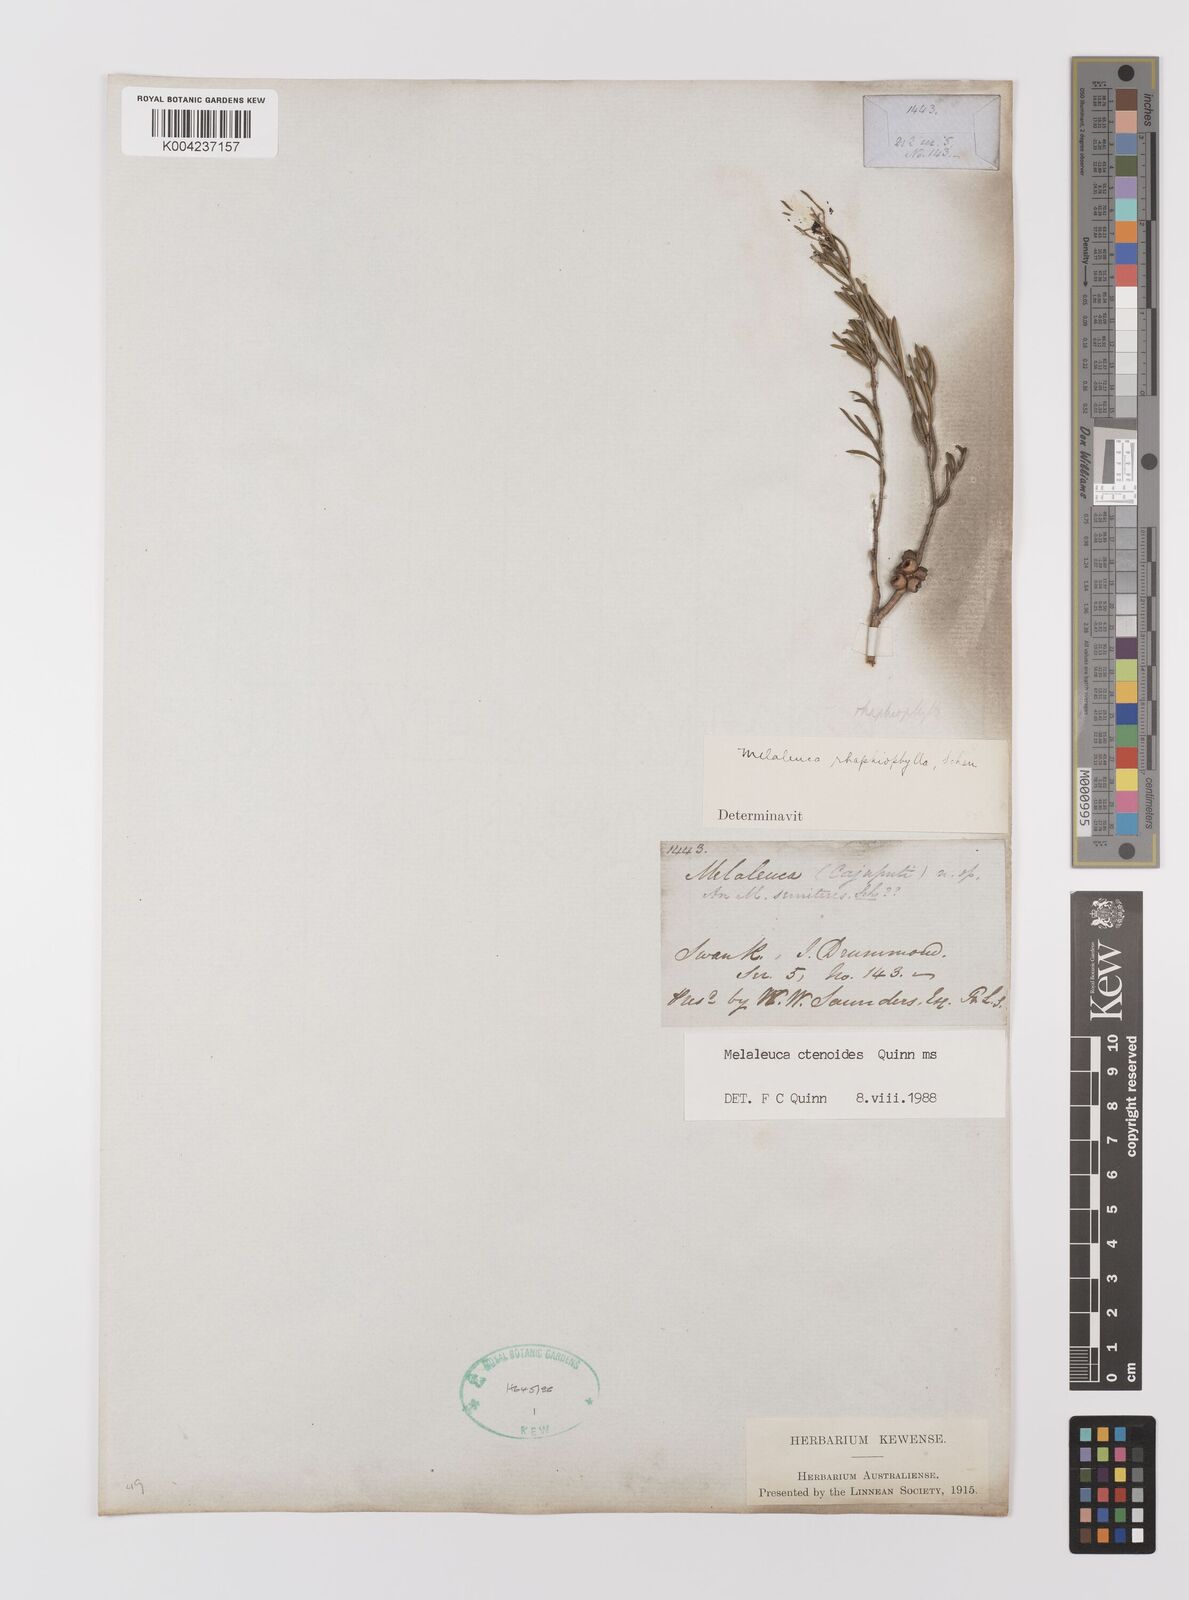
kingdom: Plantae
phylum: Tracheophyta
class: Magnoliopsida
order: Myrtales
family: Myrtaceae
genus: Melaleuca
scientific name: Melaleuca ctenoides
